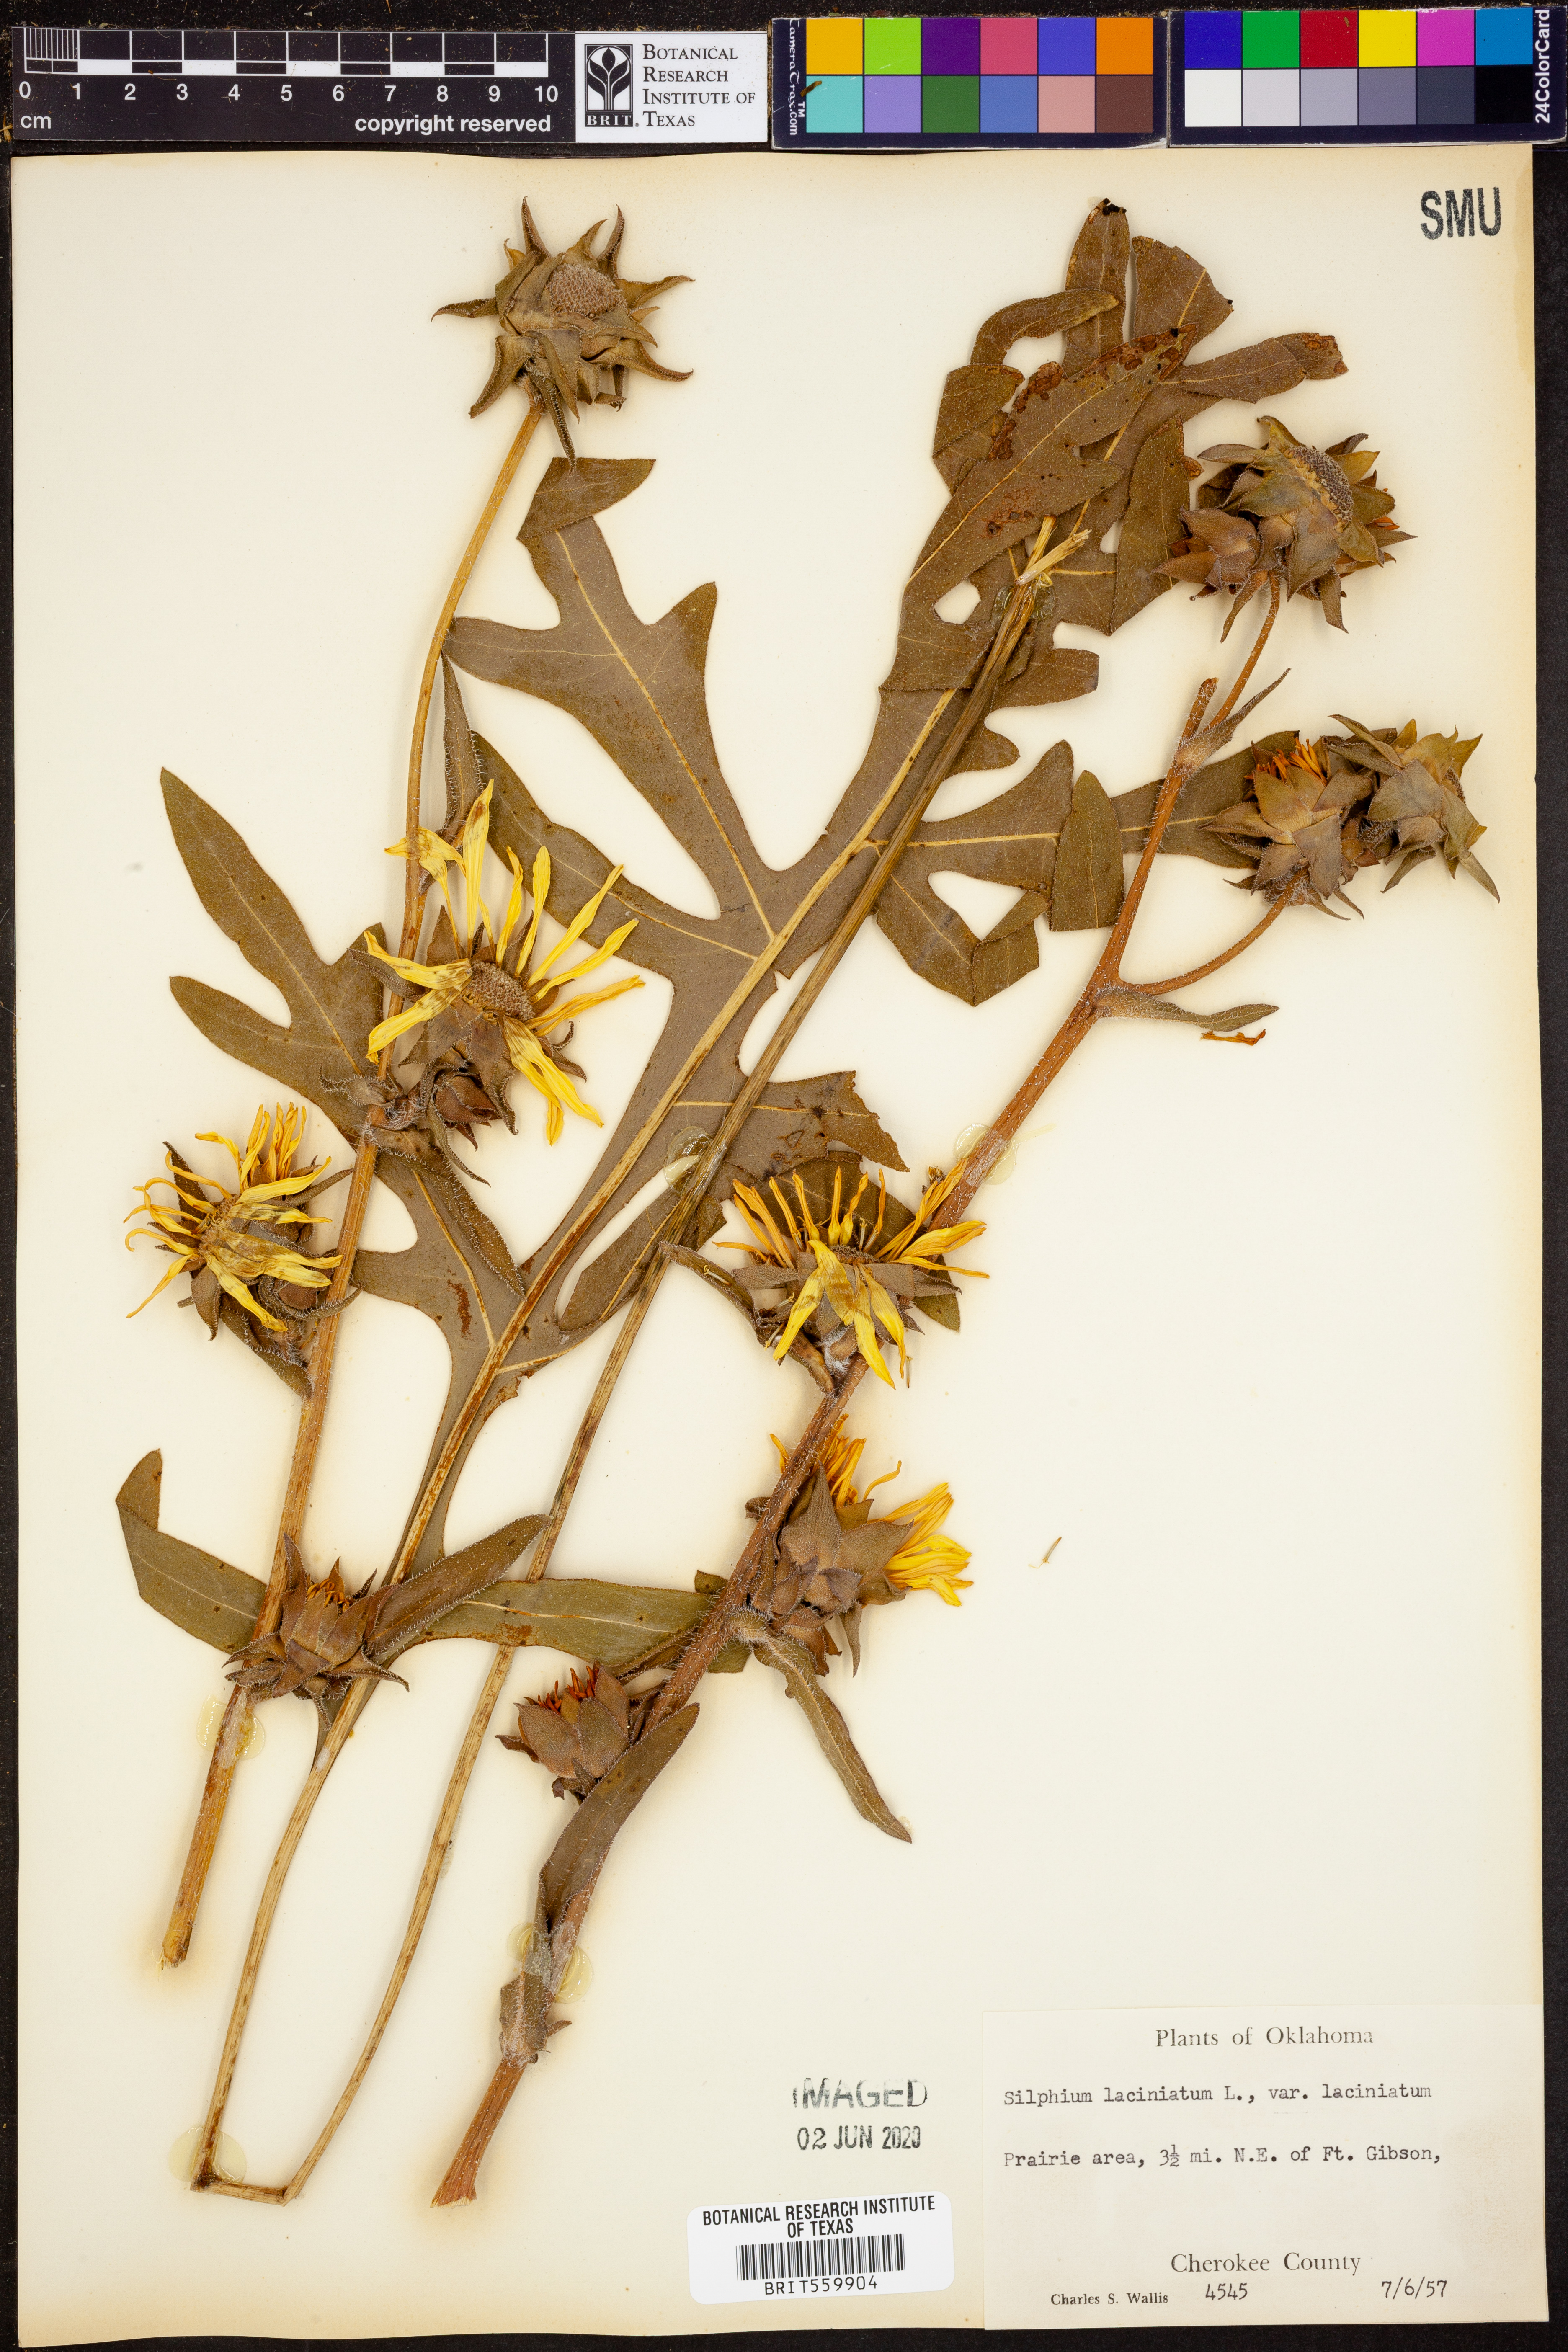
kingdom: Plantae
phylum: Tracheophyta
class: Magnoliopsida
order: Asterales
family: Asteraceae
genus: Silphium
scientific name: Silphium laciniatum
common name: Polarplant
